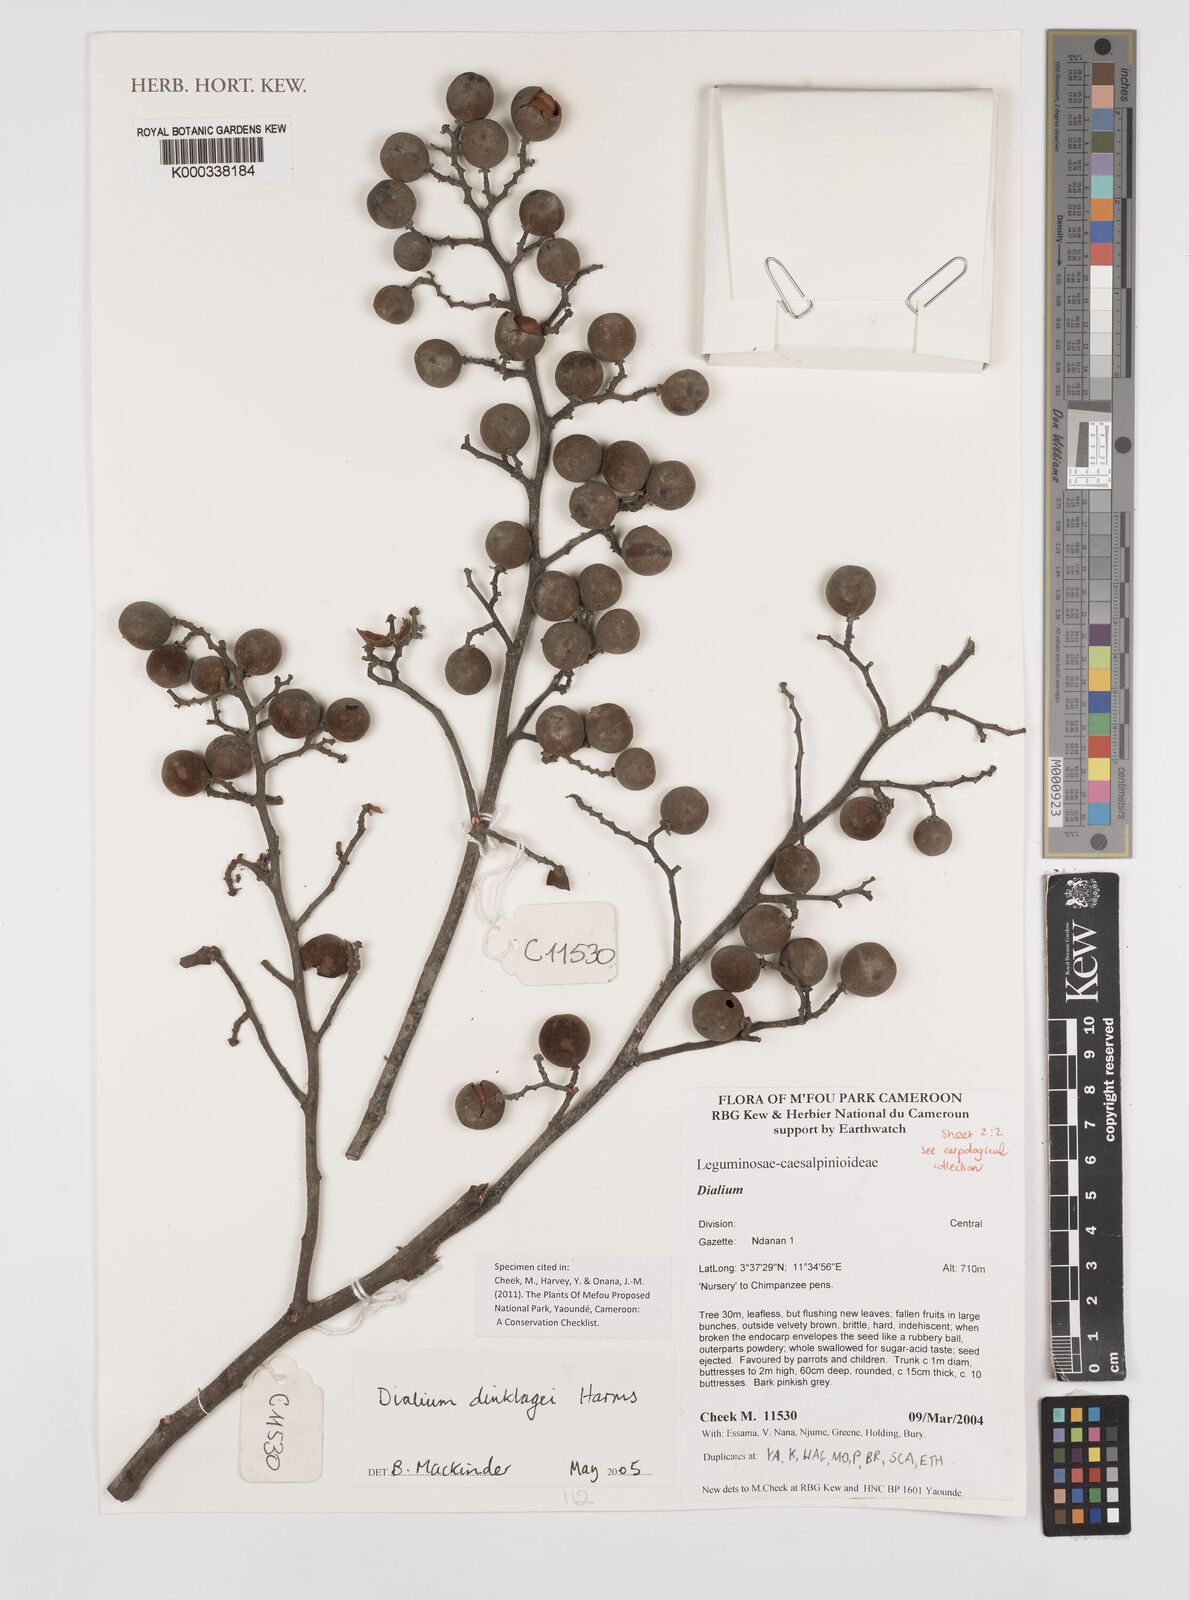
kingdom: Plantae
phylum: Tracheophyta
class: Magnoliopsida
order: Fabales
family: Fabaceae
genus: Dialium
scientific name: Dialium dinklagei
